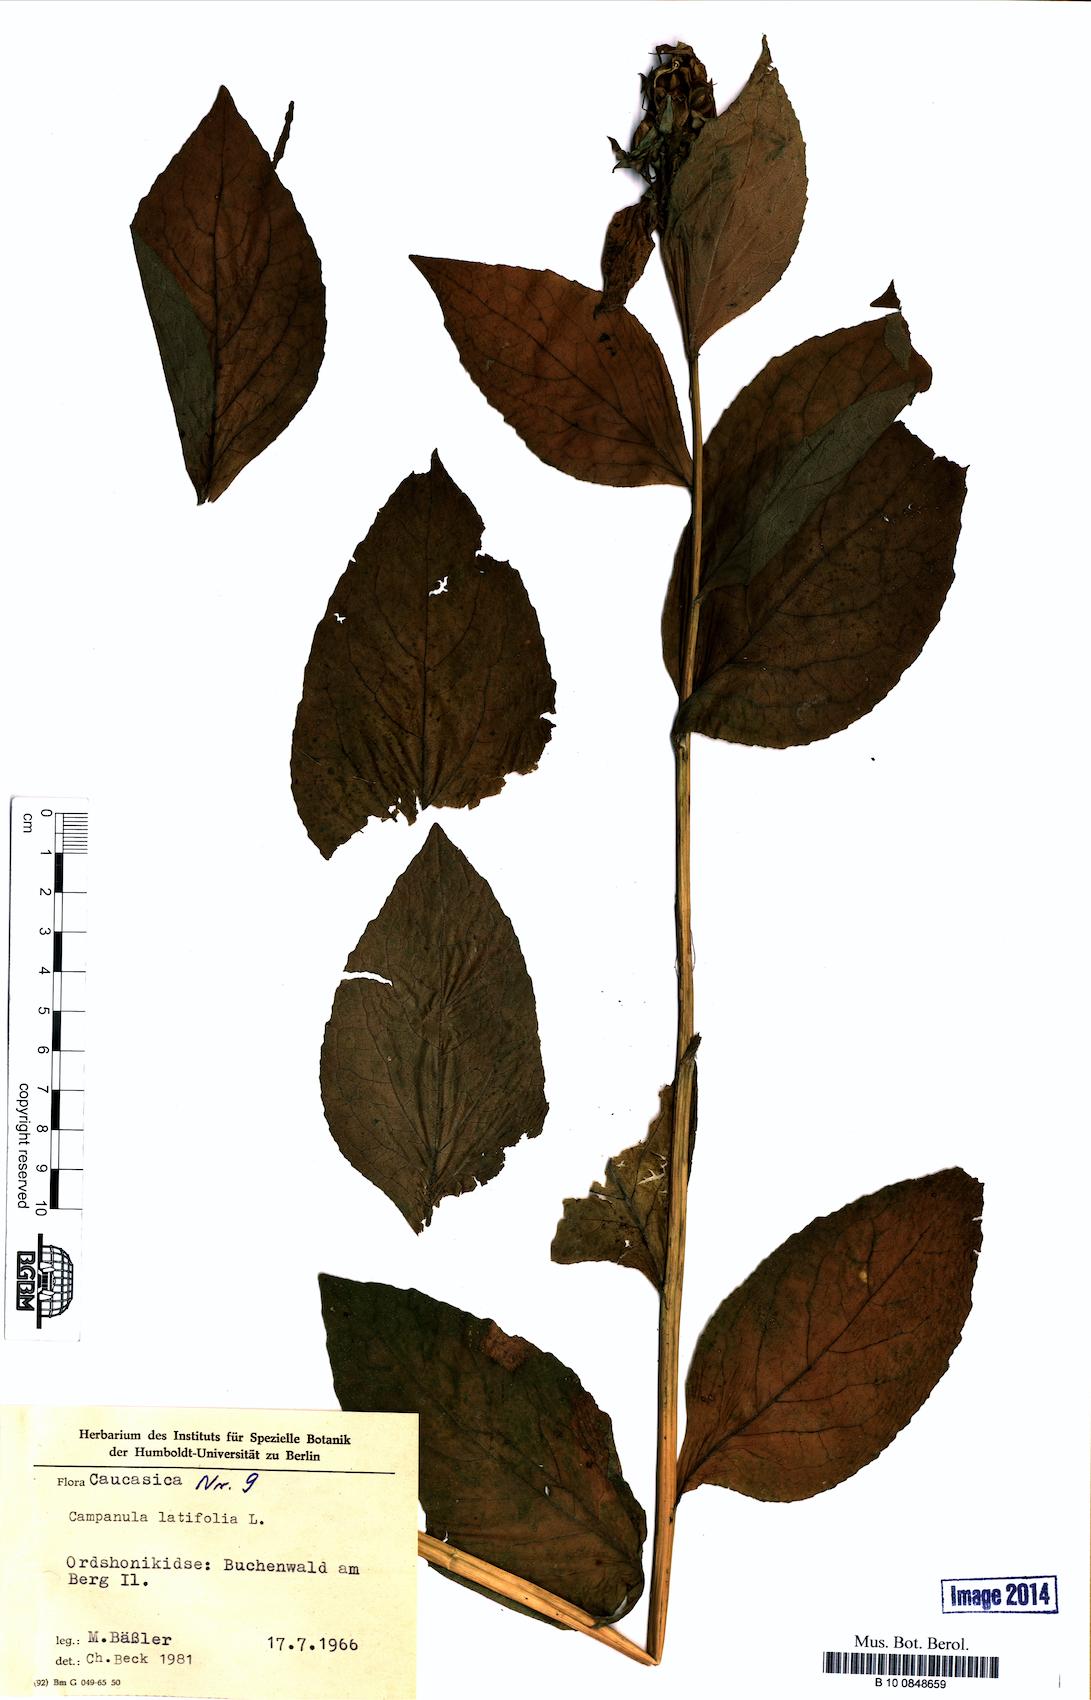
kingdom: Plantae
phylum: Tracheophyta
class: Magnoliopsida
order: Asterales
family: Campanulaceae
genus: Campanula
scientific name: Campanula latifolia
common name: Giant bellflower
